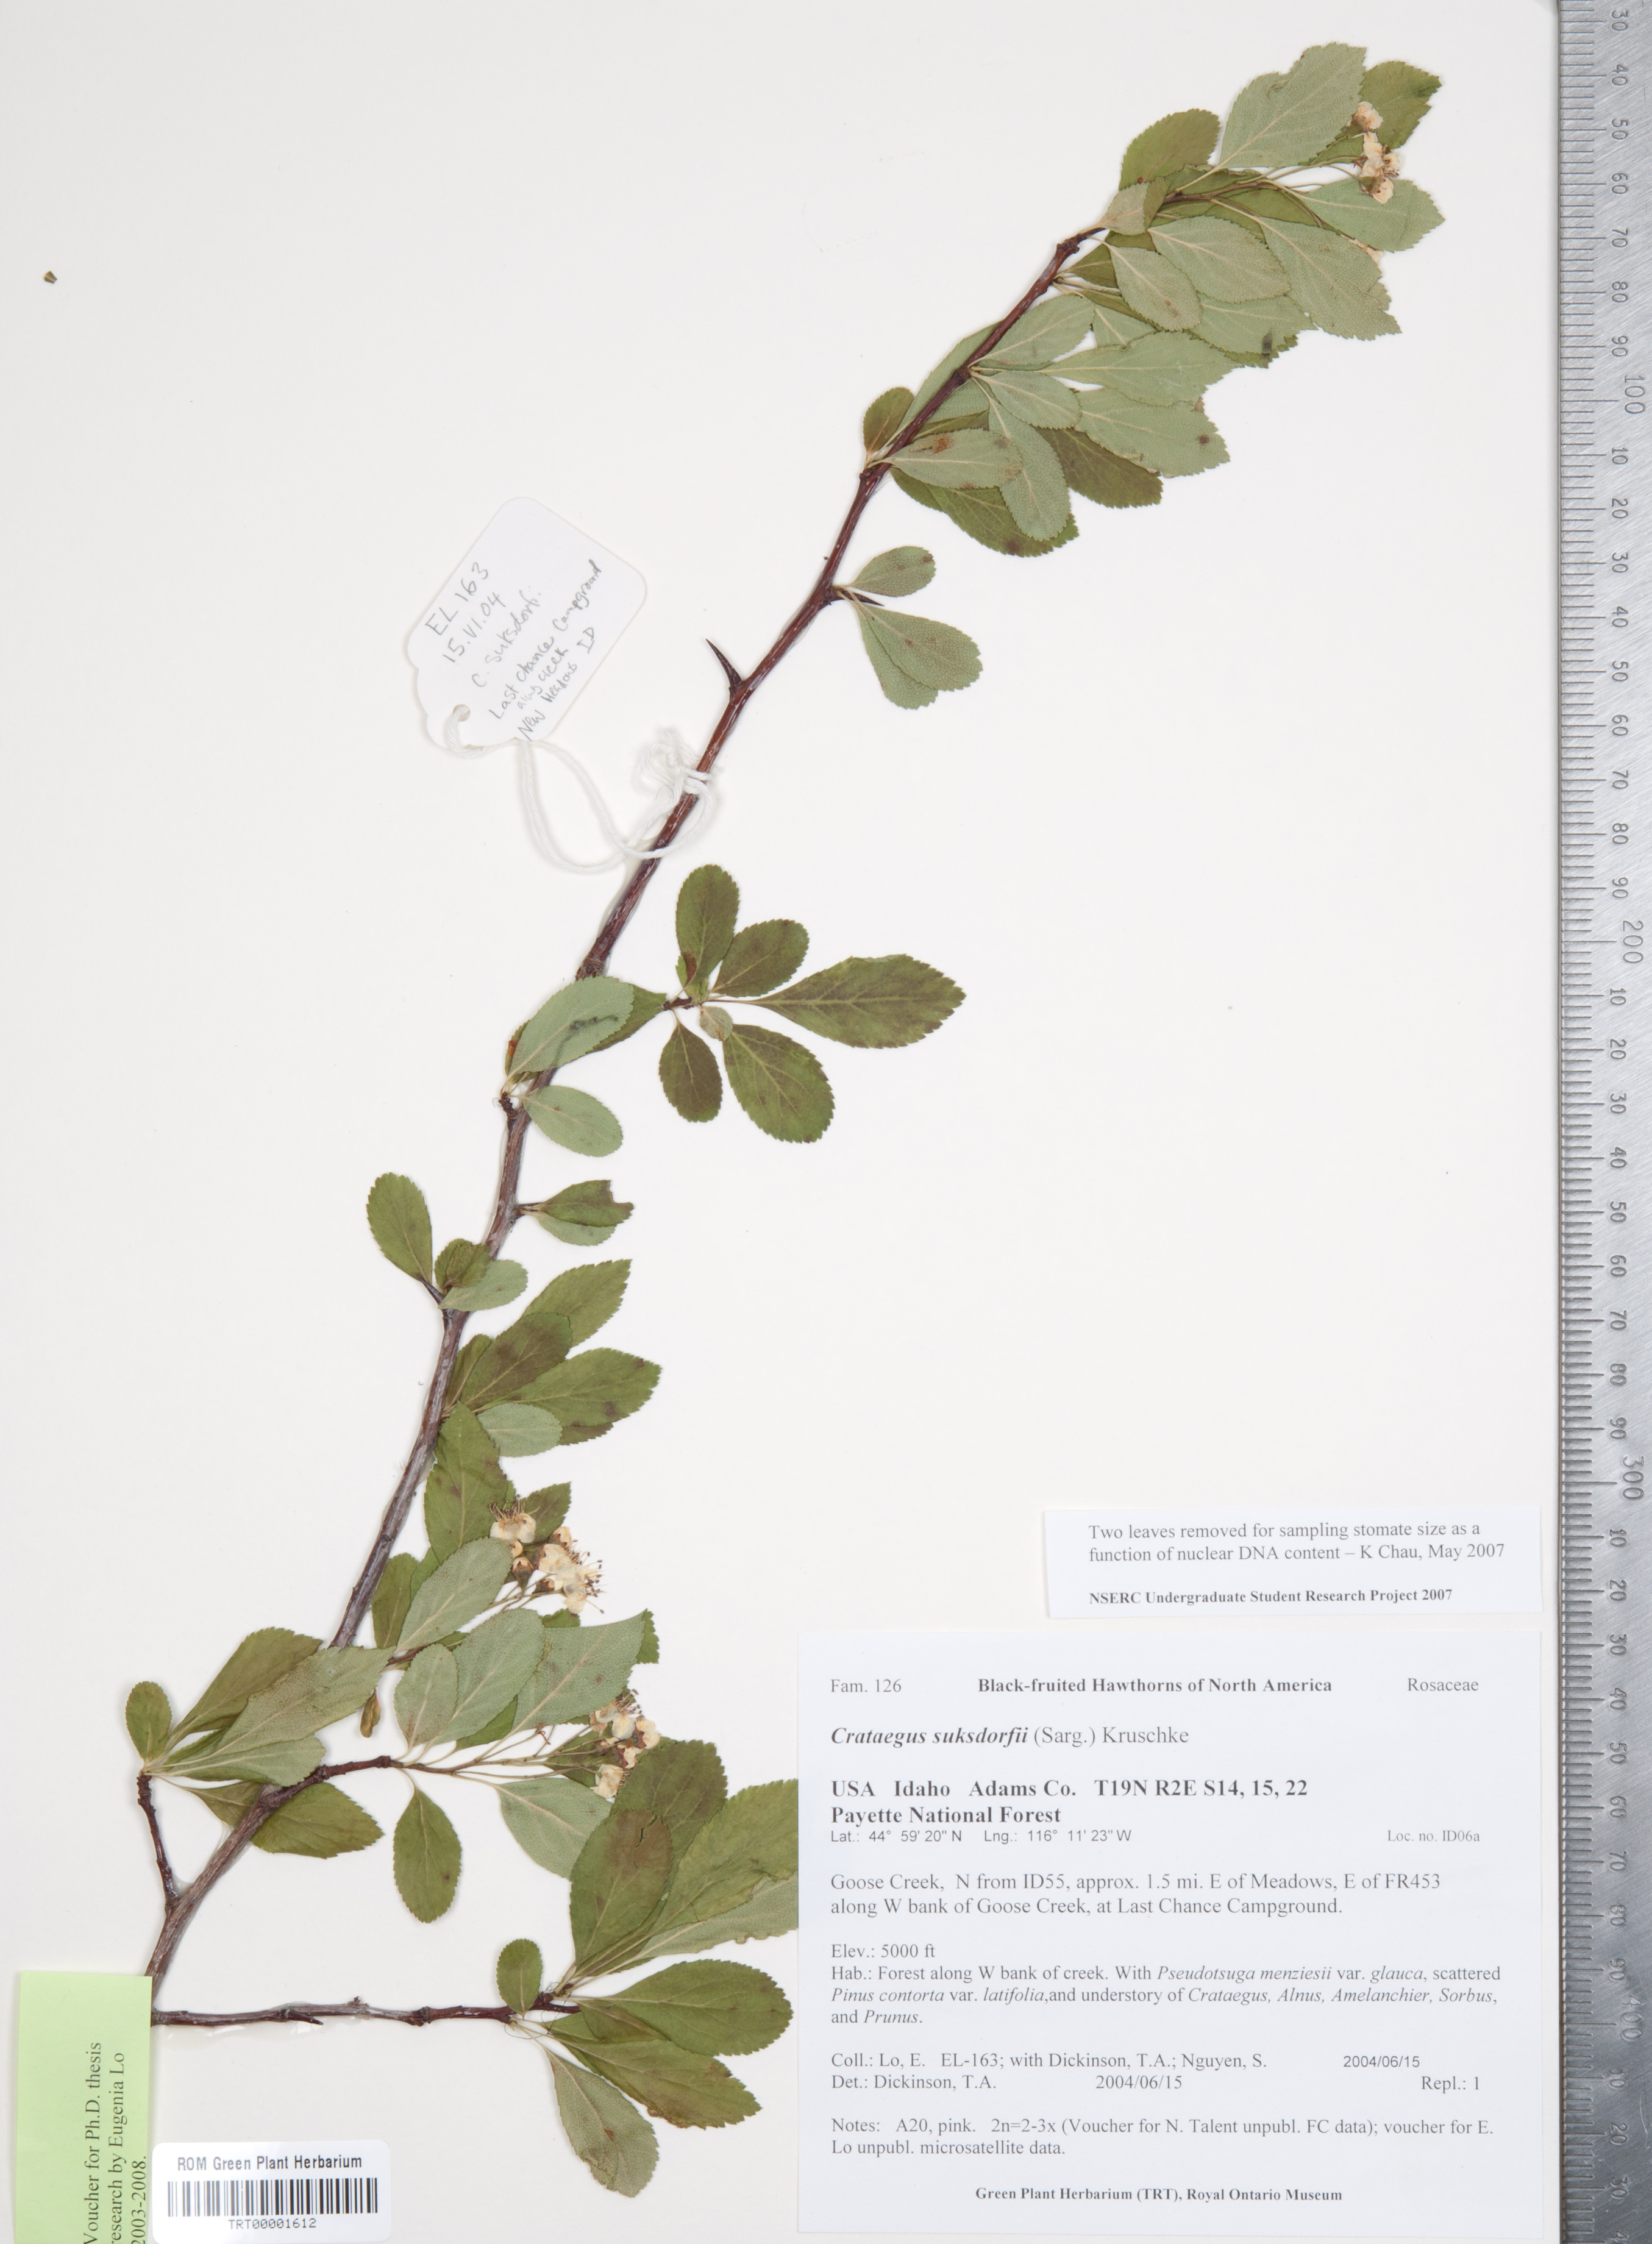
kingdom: Plantae
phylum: Tracheophyta
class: Magnoliopsida
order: Rosales
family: Rosaceae
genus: Crataegus
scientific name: Crataegus gaylussacia
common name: Huckleberry hawthorn
